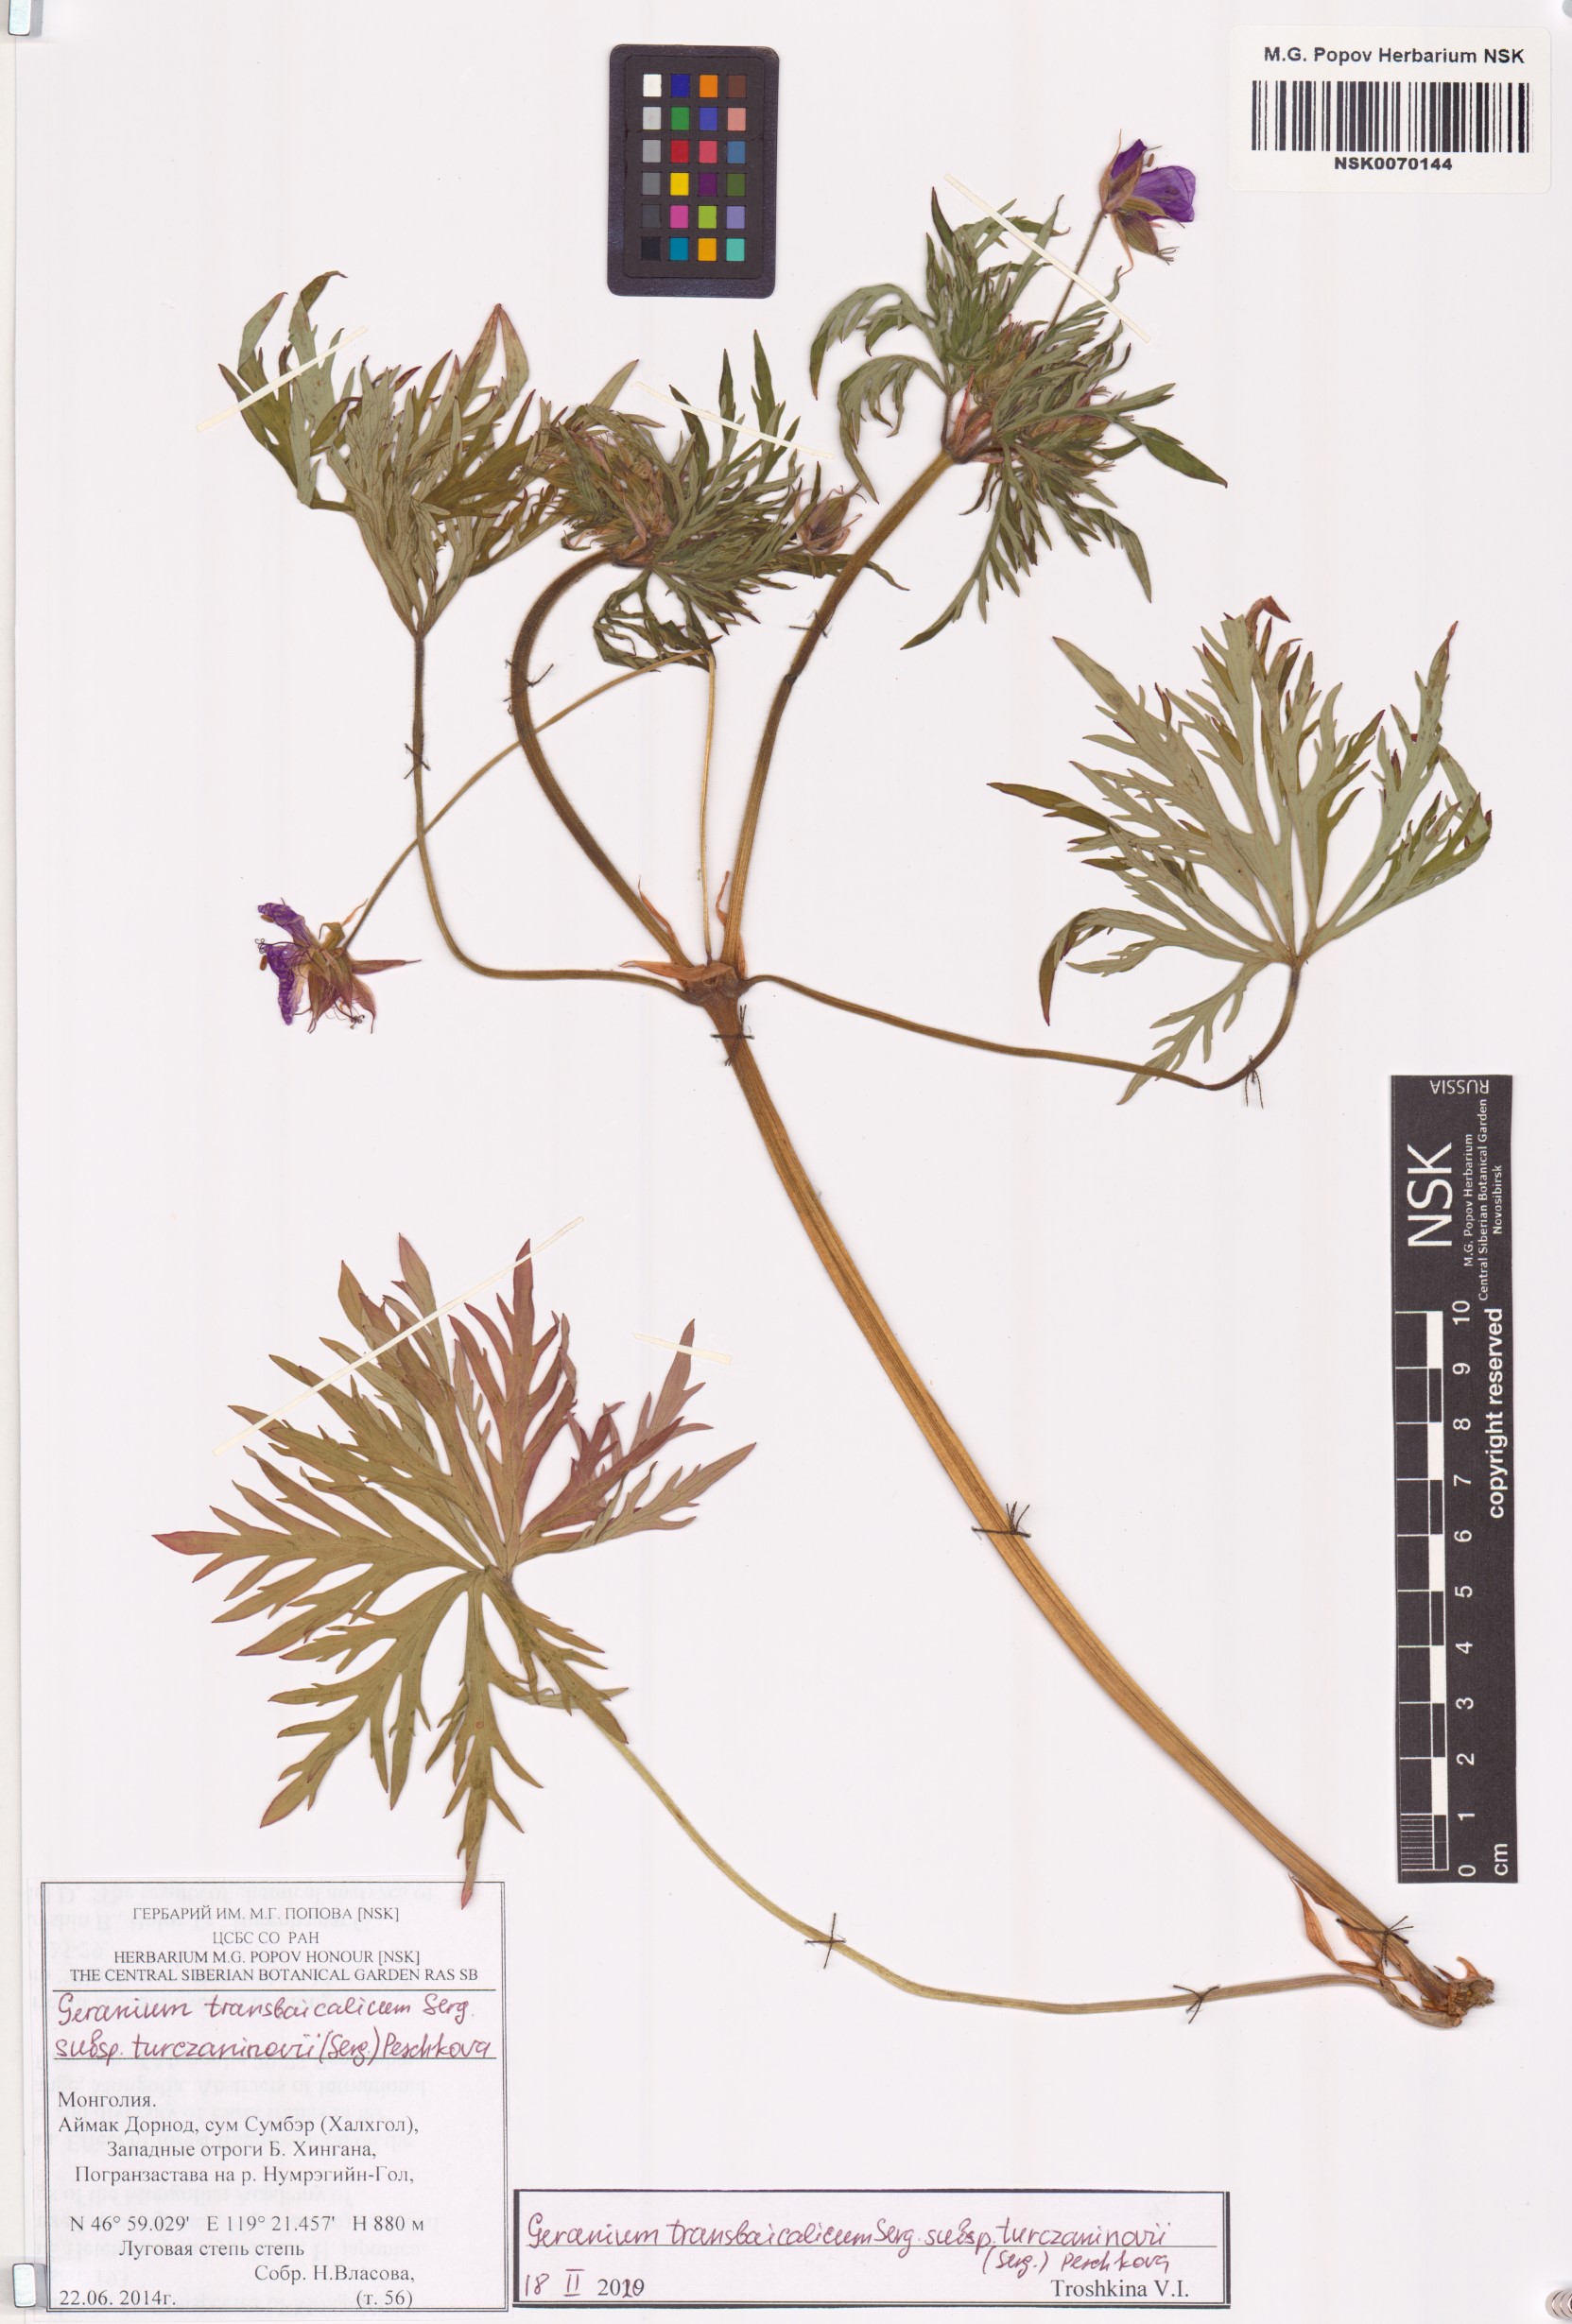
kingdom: Plantae
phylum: Tracheophyta
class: Magnoliopsida
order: Geraniales
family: Geraniaceae
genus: Geranium
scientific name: Geranium pratense
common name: Meadow crane's-bill
